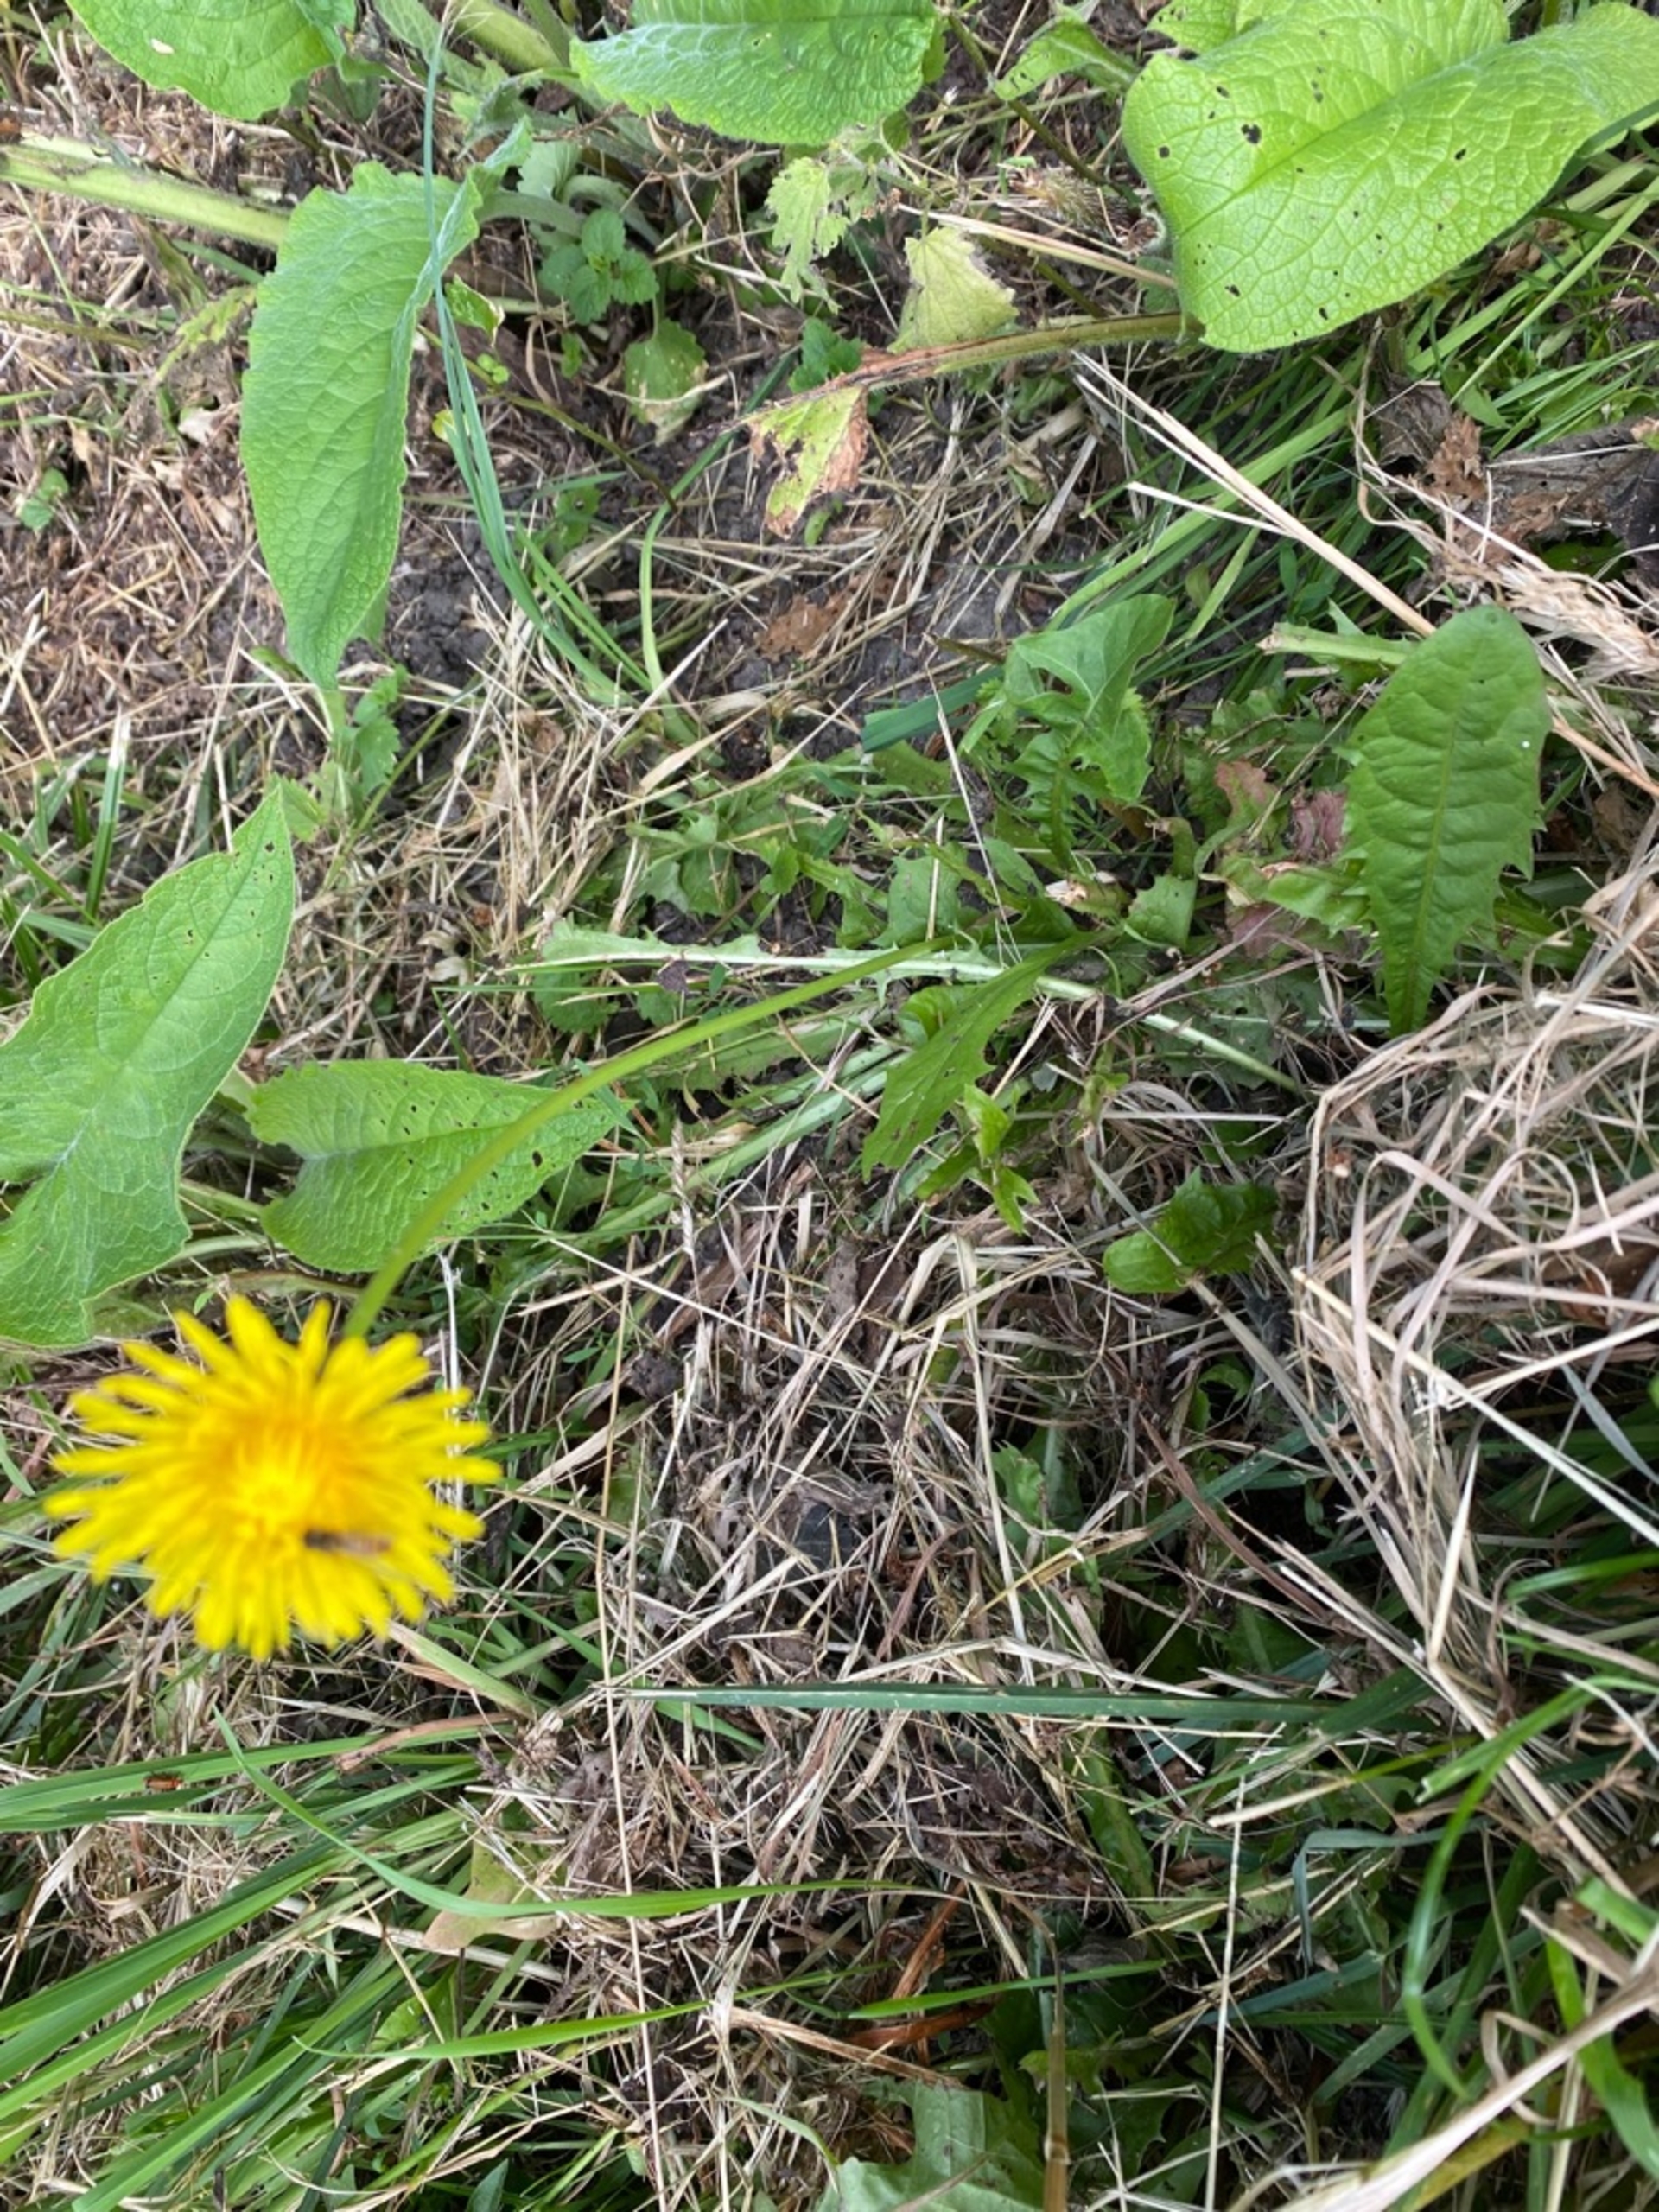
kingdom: Plantae
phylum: Tracheophyta
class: Magnoliopsida
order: Asterales
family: Asteraceae
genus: Taraxacum
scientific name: Taraxacum
